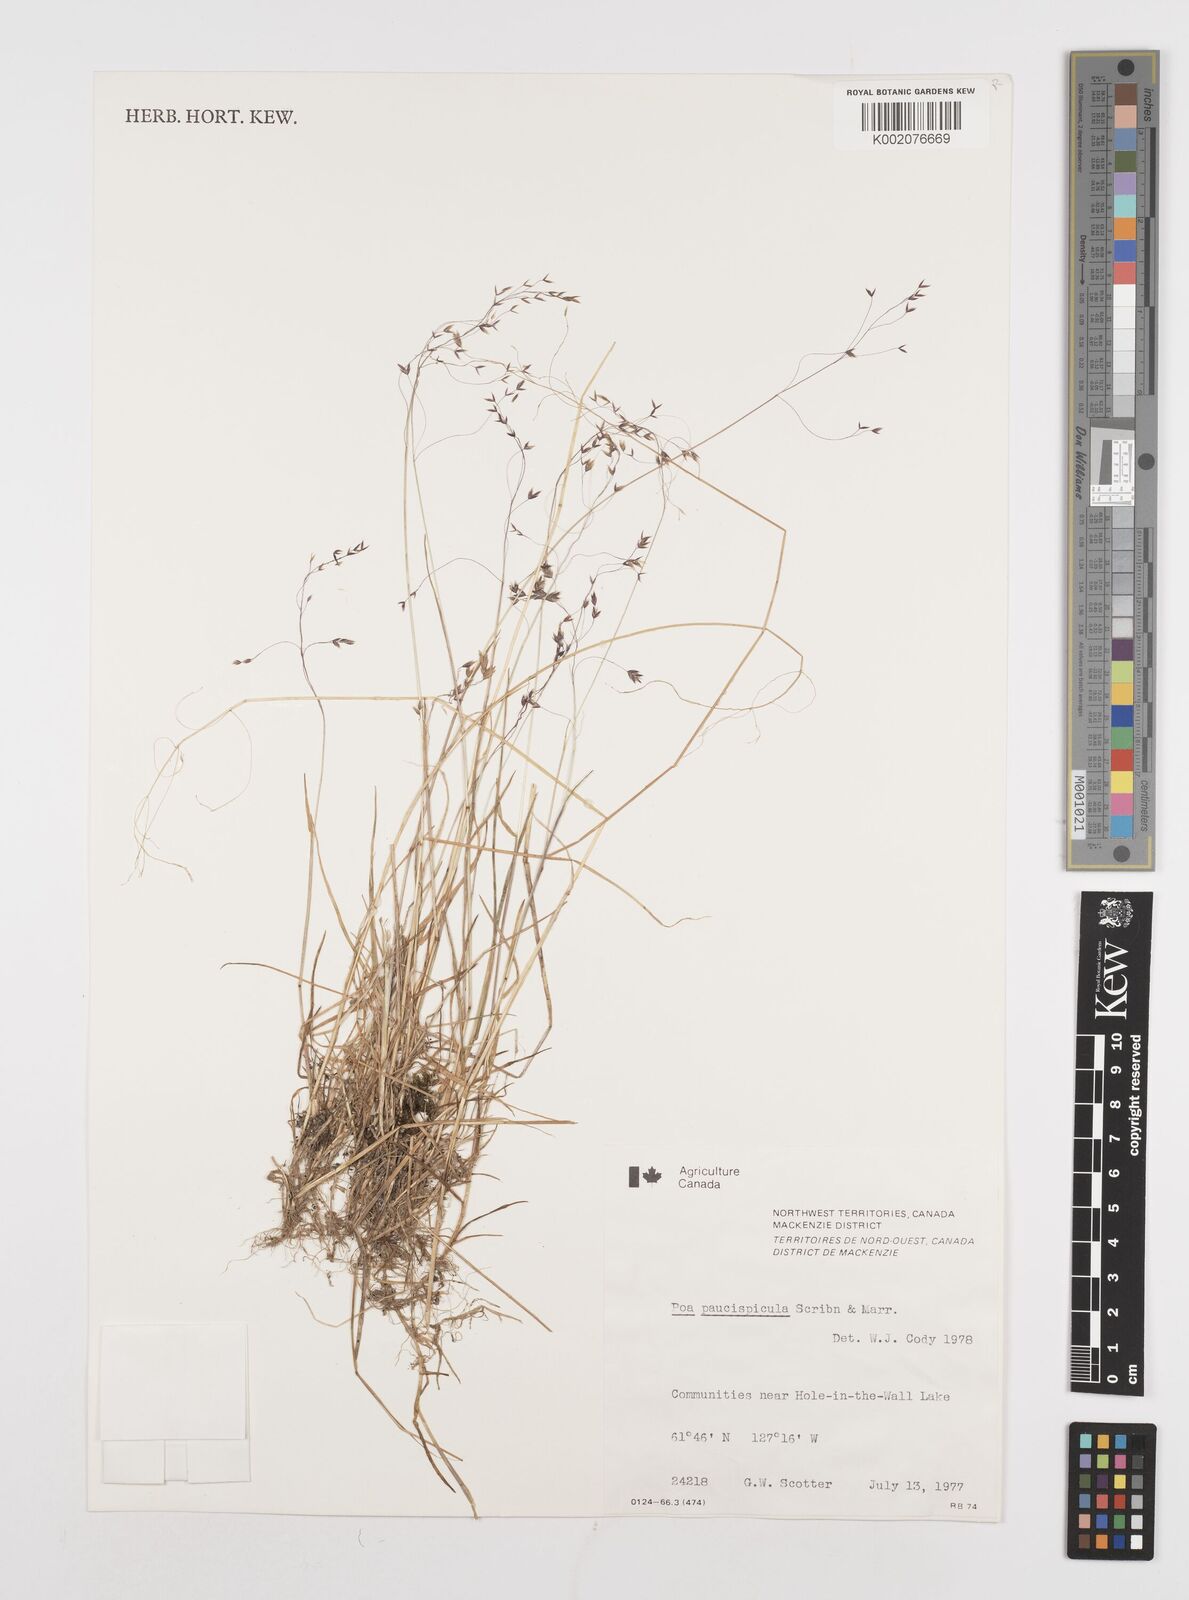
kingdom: Plantae
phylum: Tracheophyta
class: Liliopsida
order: Poales
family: Poaceae
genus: Poa
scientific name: Poa paucispicula
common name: Alaska bluegrass
